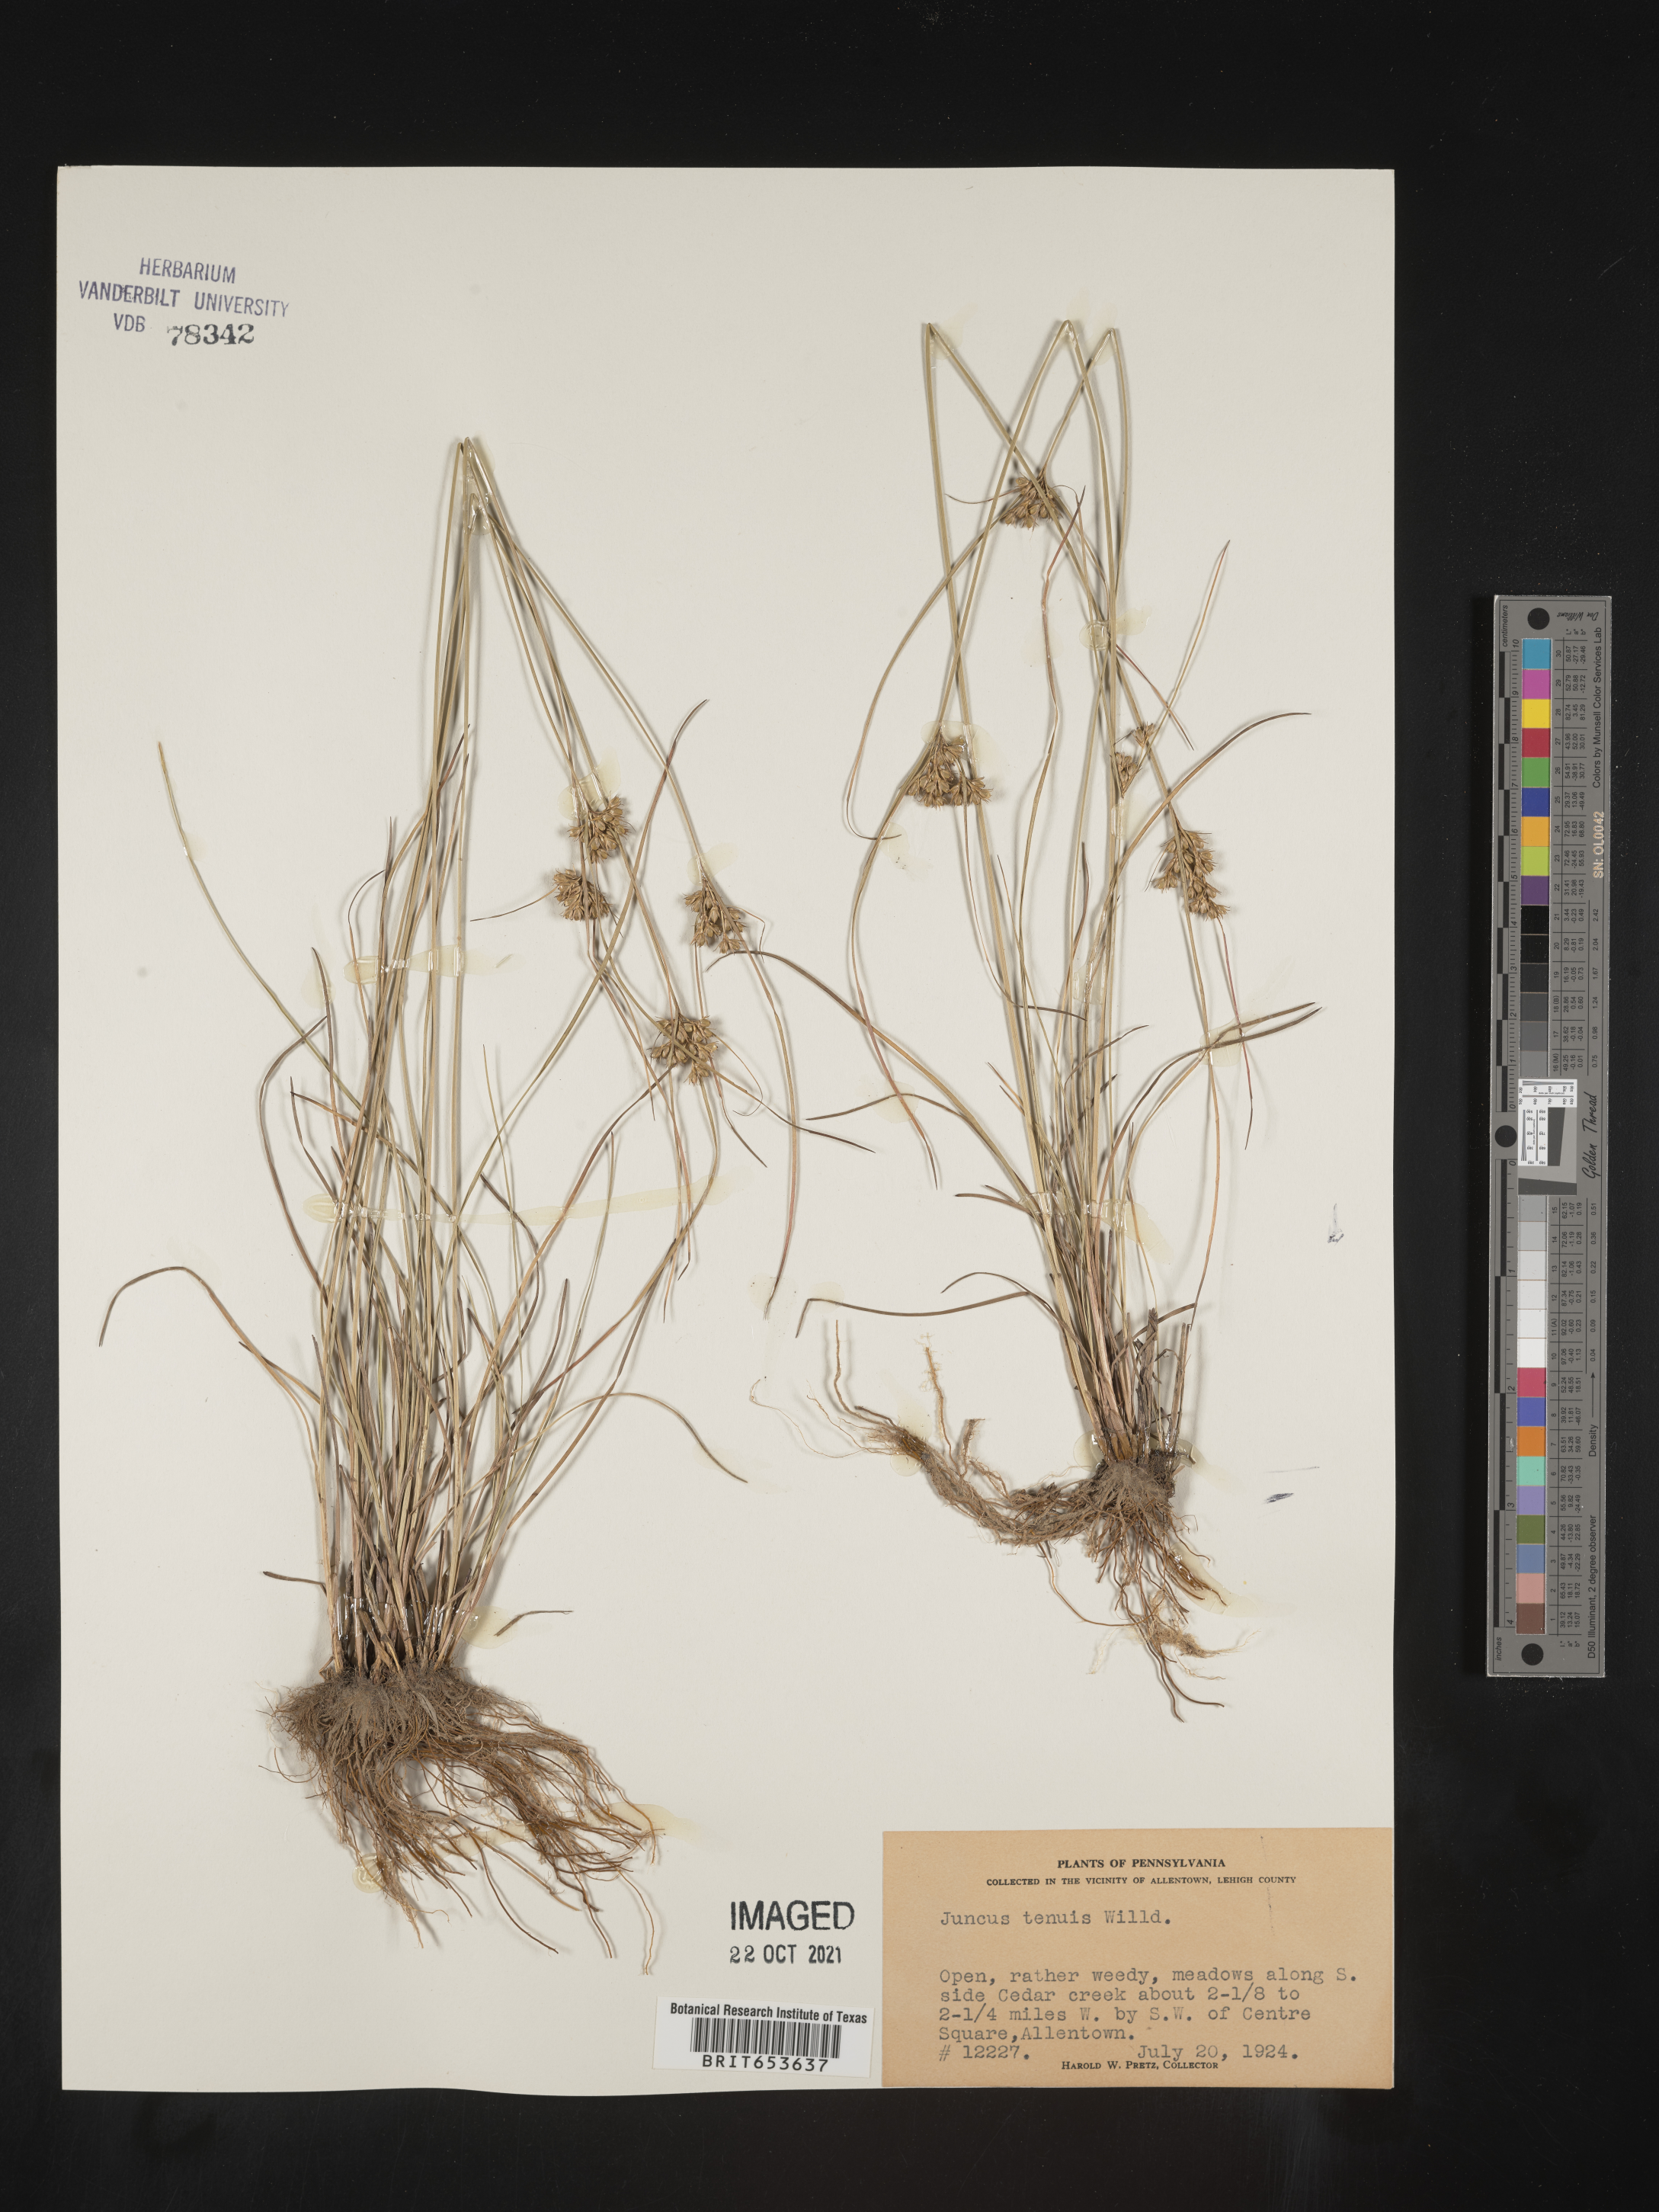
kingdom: Plantae
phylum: Tracheophyta
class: Liliopsida
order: Poales
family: Juncaceae
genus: Juncus
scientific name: Juncus tenuis
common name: Slender rush
